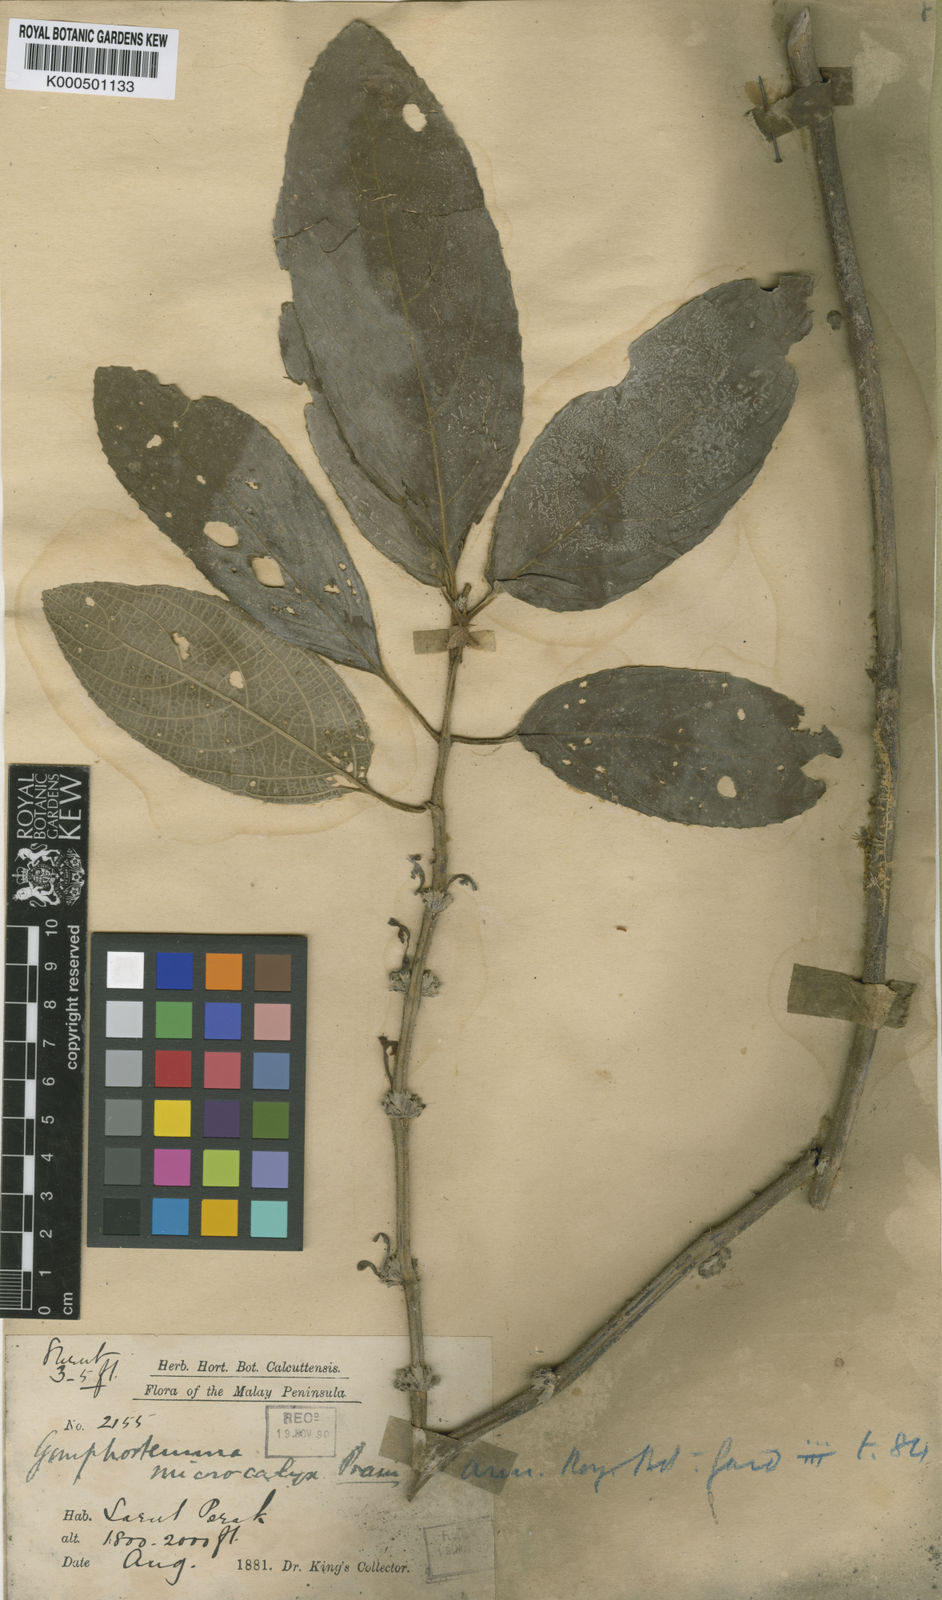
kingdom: Plantae
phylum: Tracheophyta
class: Magnoliopsida
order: Lamiales
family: Lamiaceae
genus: Gomphostemma
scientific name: Gomphostemma microcalyx
